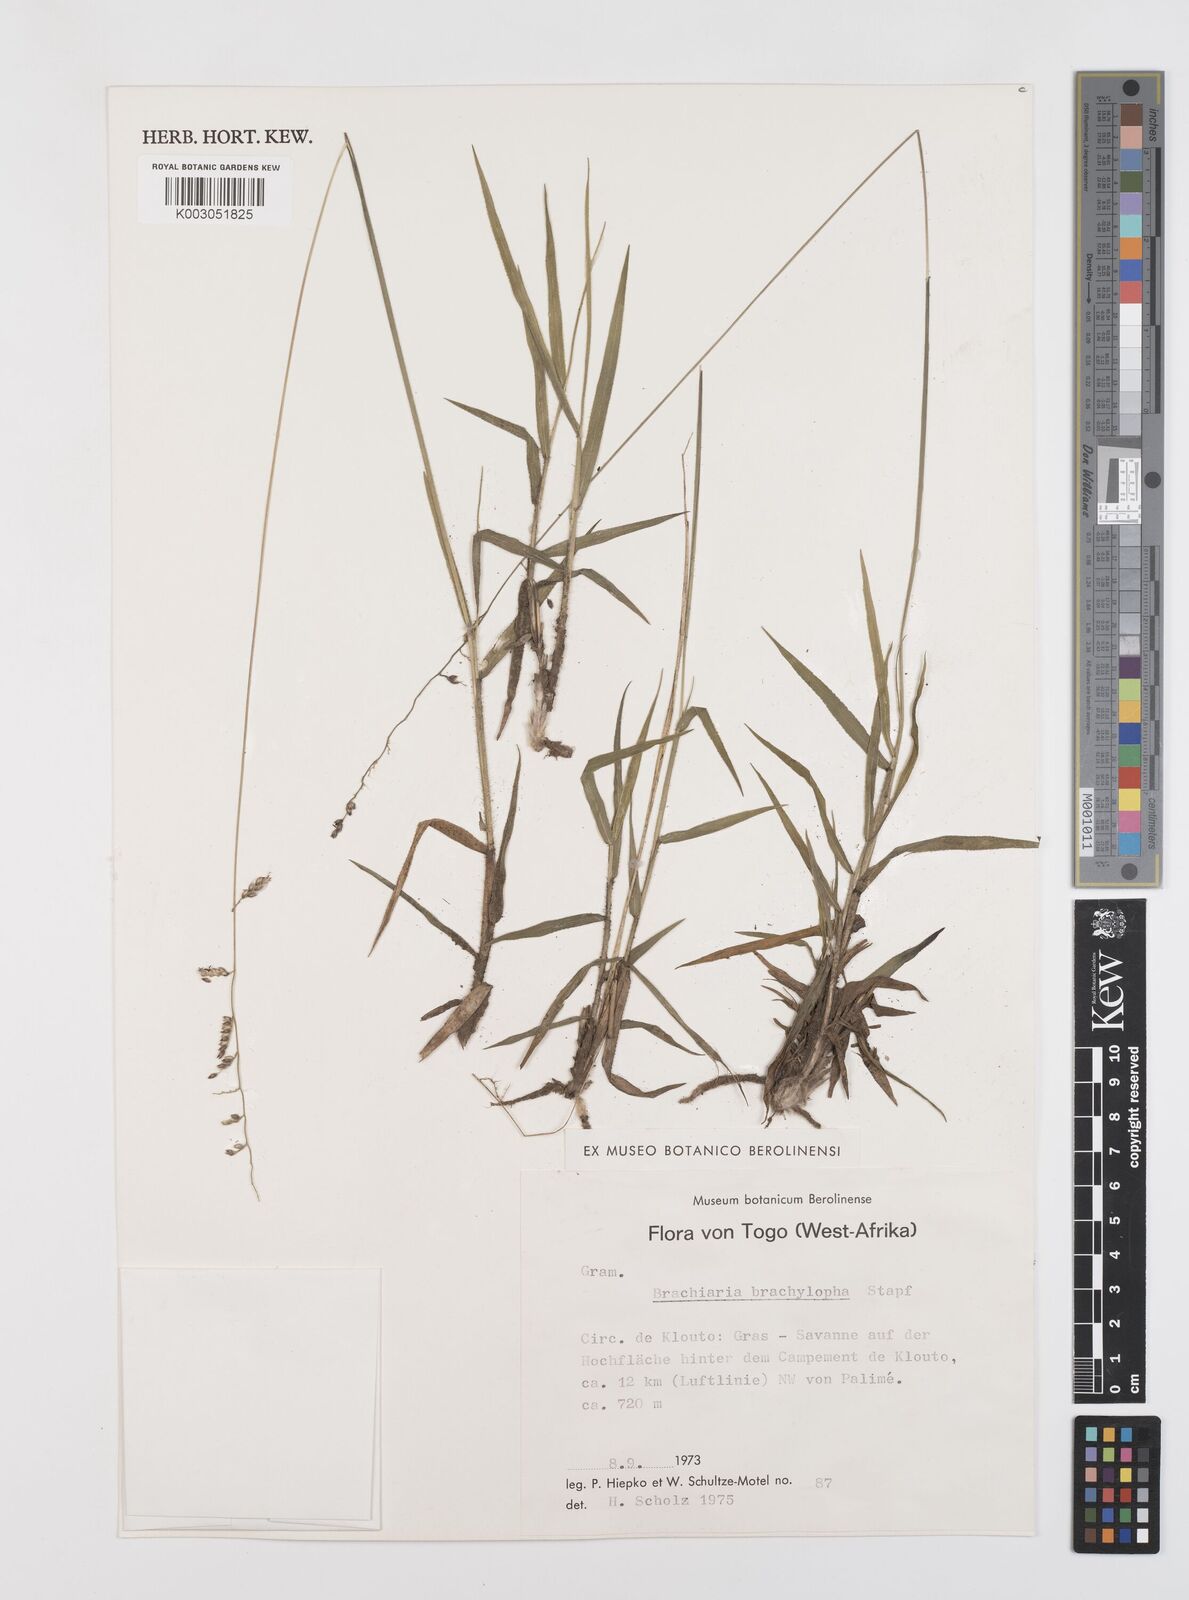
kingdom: Plantae
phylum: Tracheophyta
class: Liliopsida
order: Poales
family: Poaceae
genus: Urochloa
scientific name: Urochloa serrata
